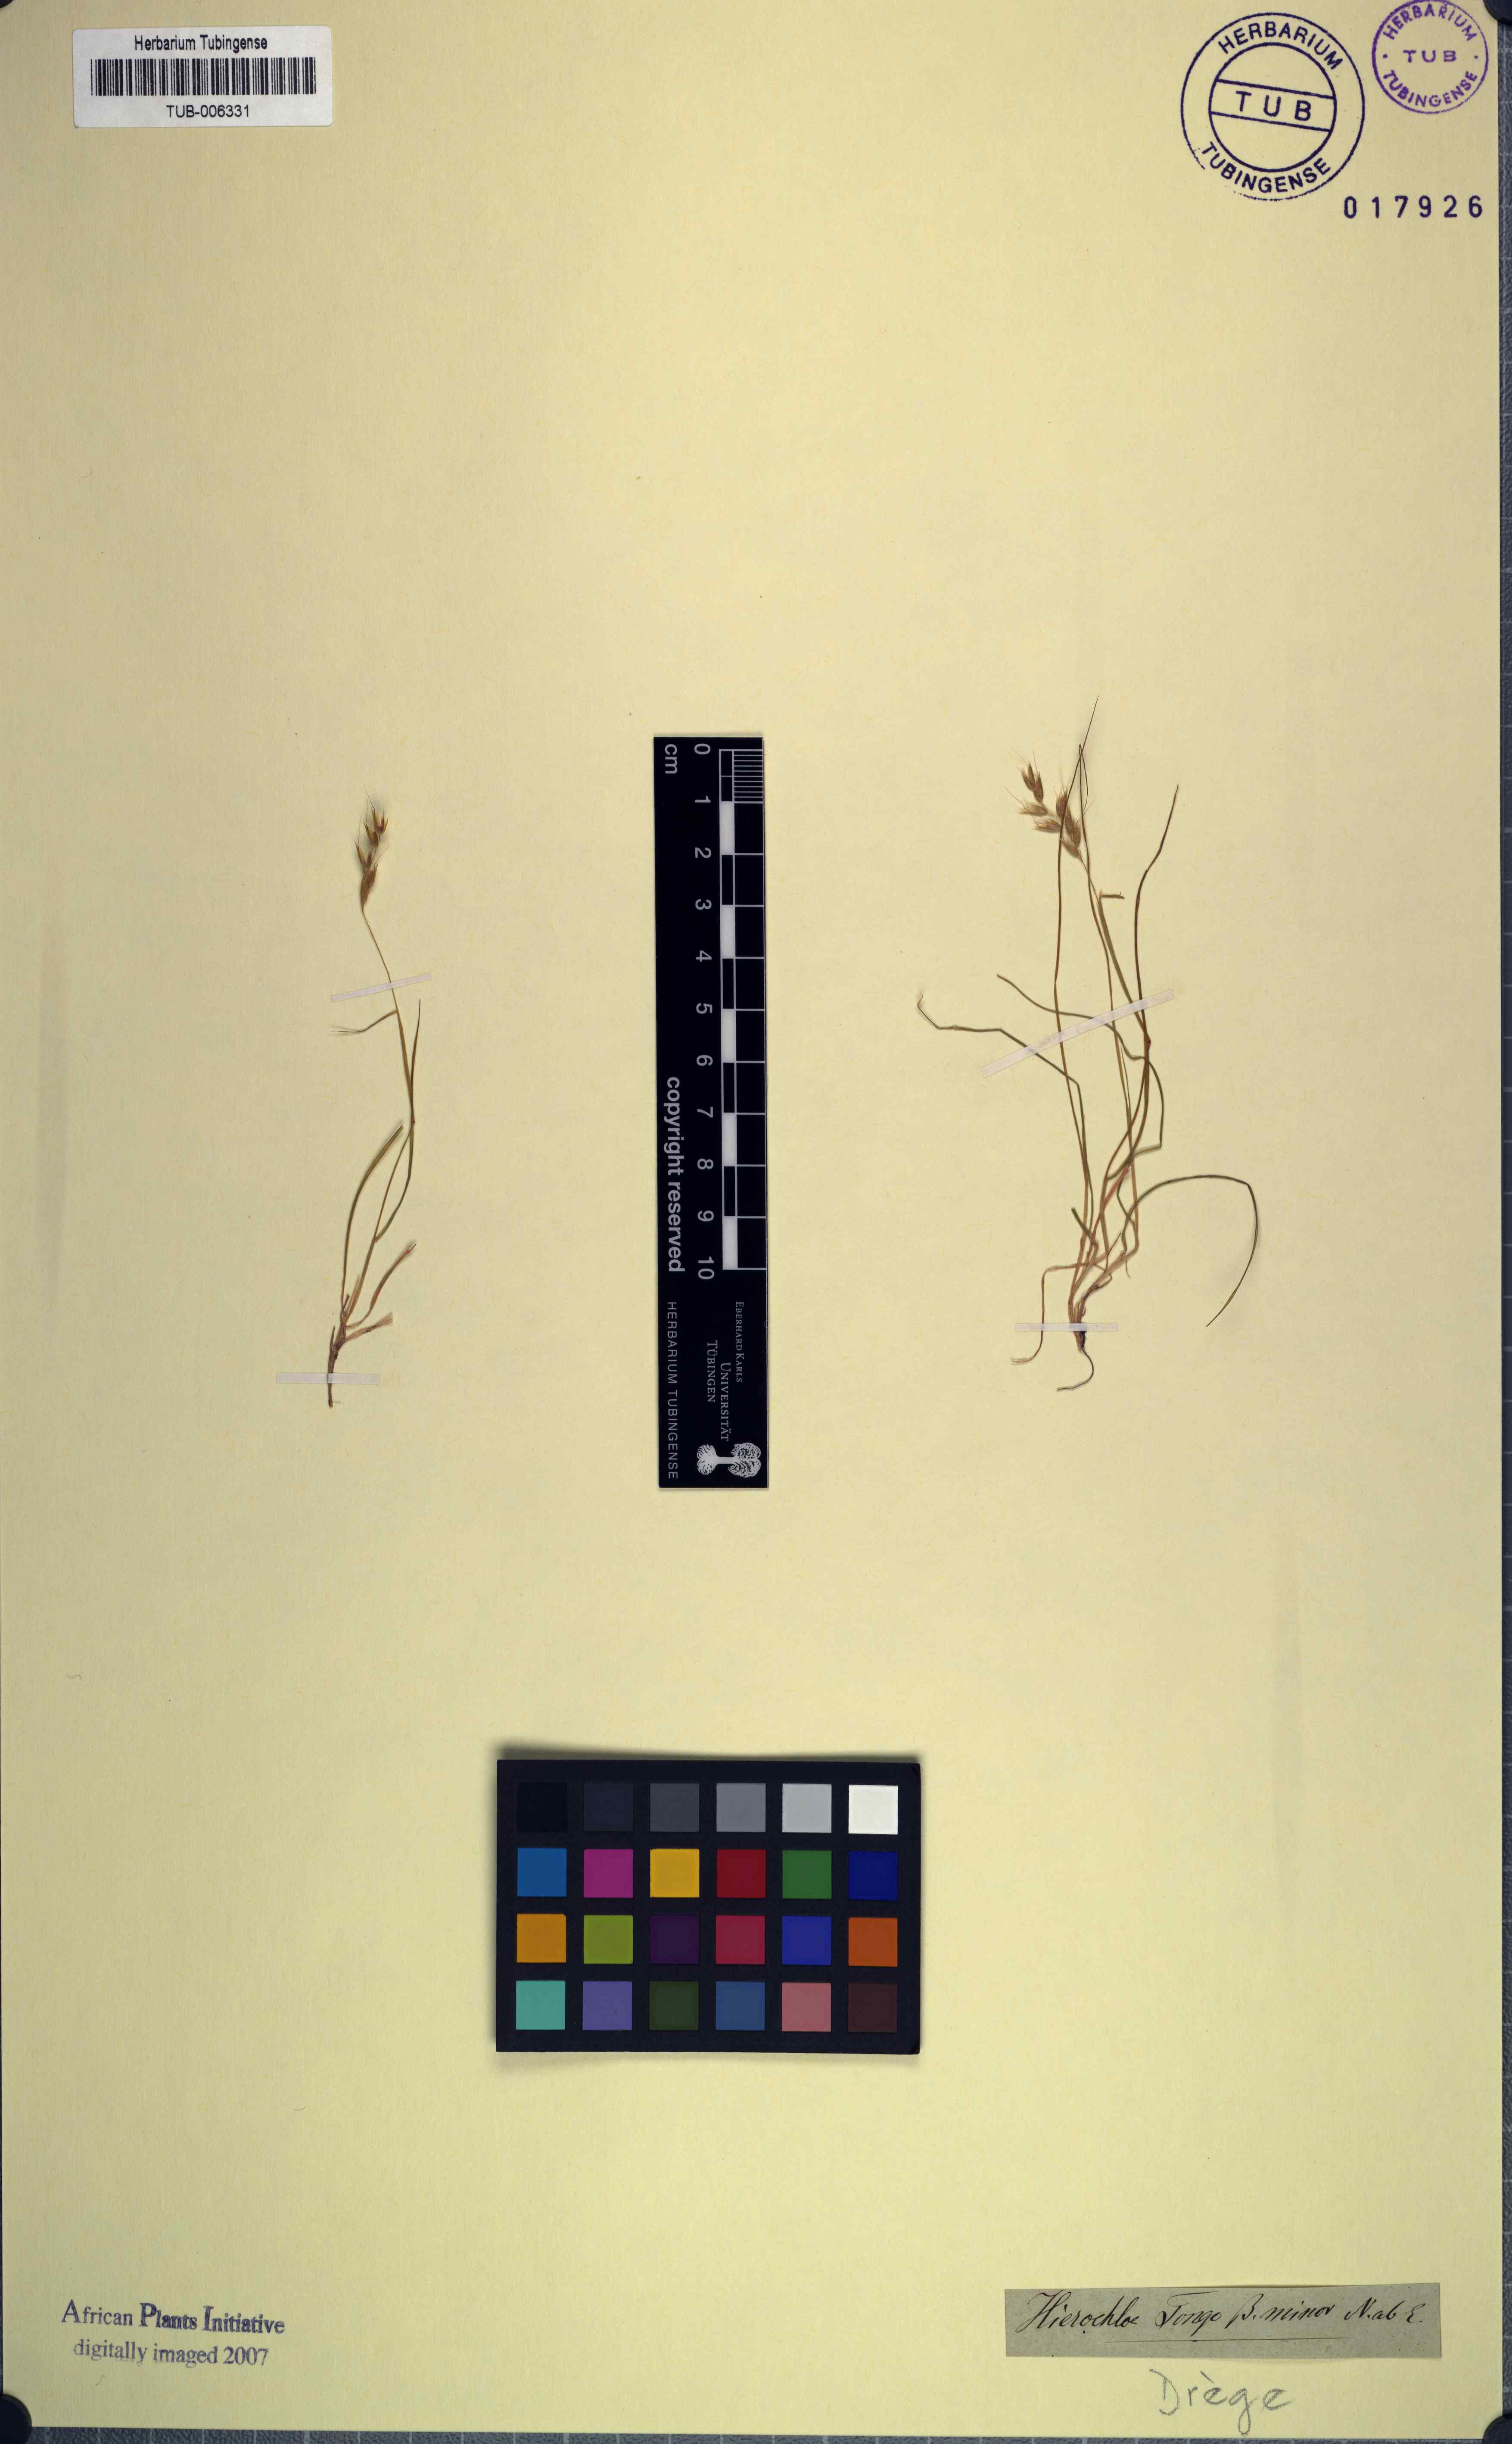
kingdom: Plantae
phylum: Tracheophyta
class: Liliopsida
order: Poales
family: Poaceae
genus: Anthoxanthum
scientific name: Anthoxanthum tongo
